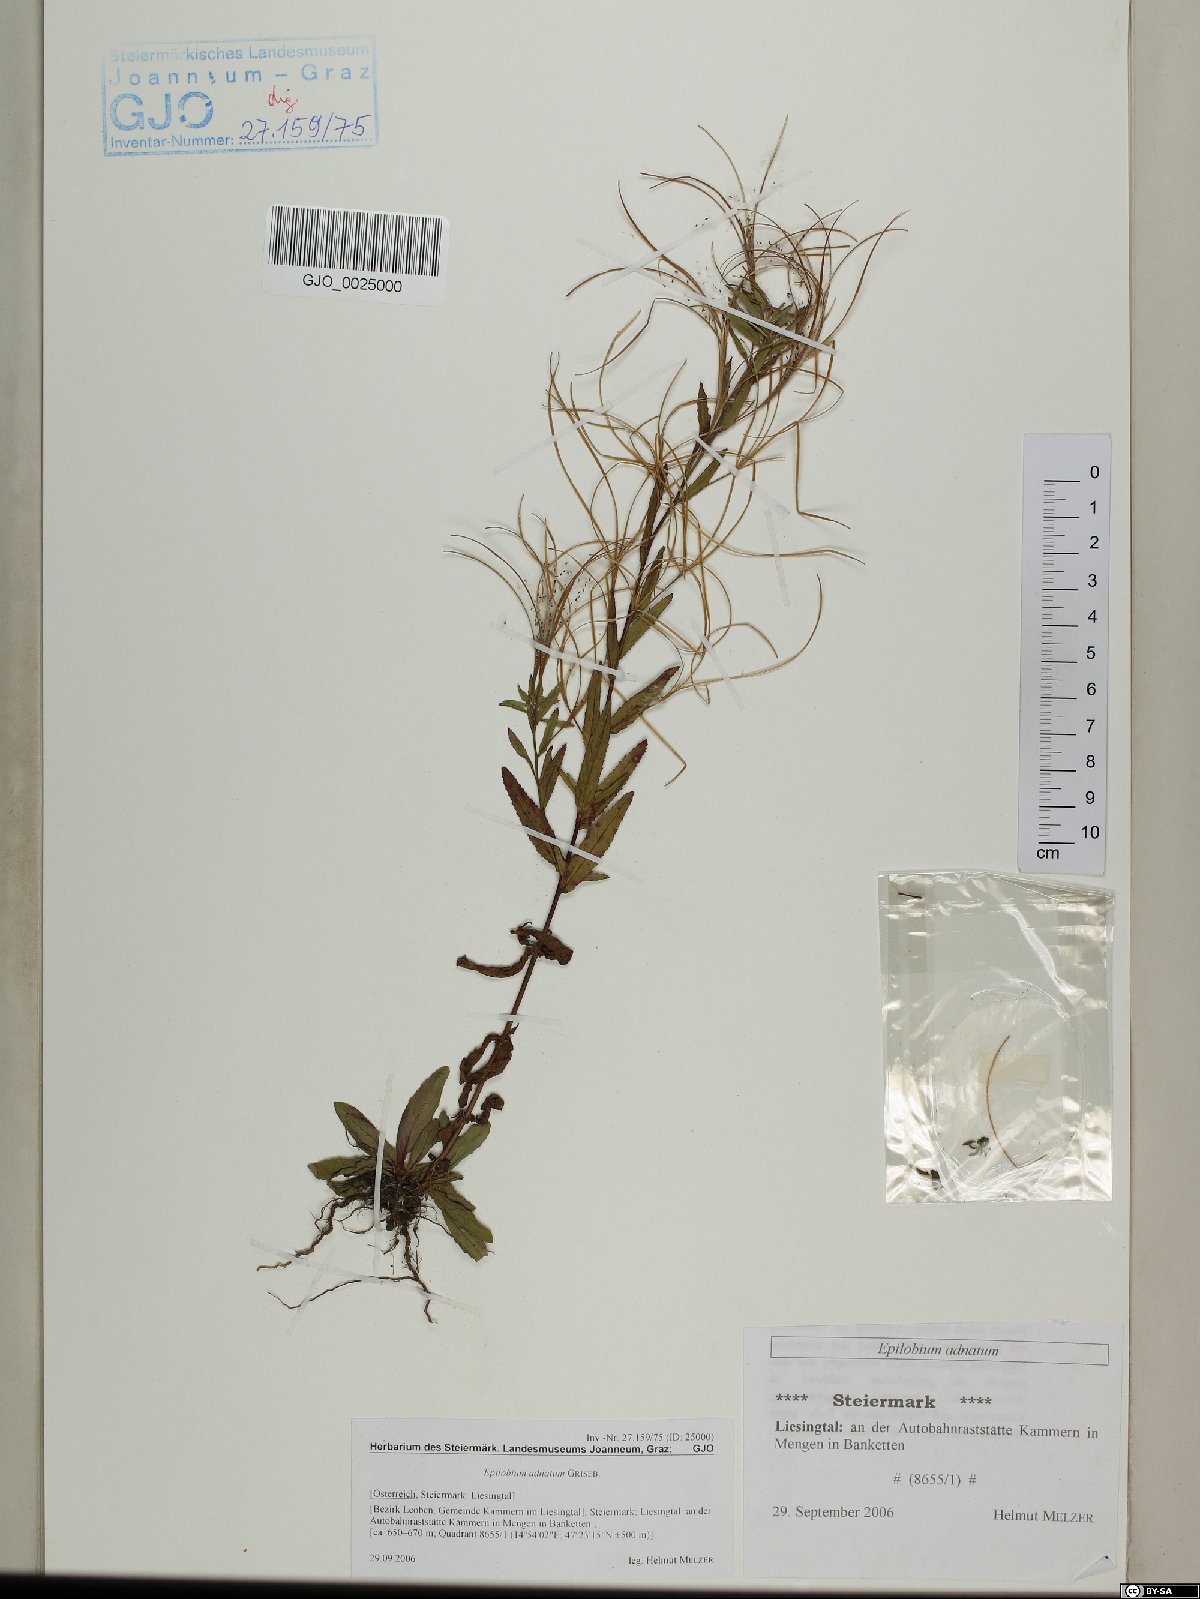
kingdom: Plantae
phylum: Tracheophyta
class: Magnoliopsida
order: Myrtales
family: Onagraceae
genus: Epilobium
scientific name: Epilobium tetragonum
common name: Square-stemmed willowherb
